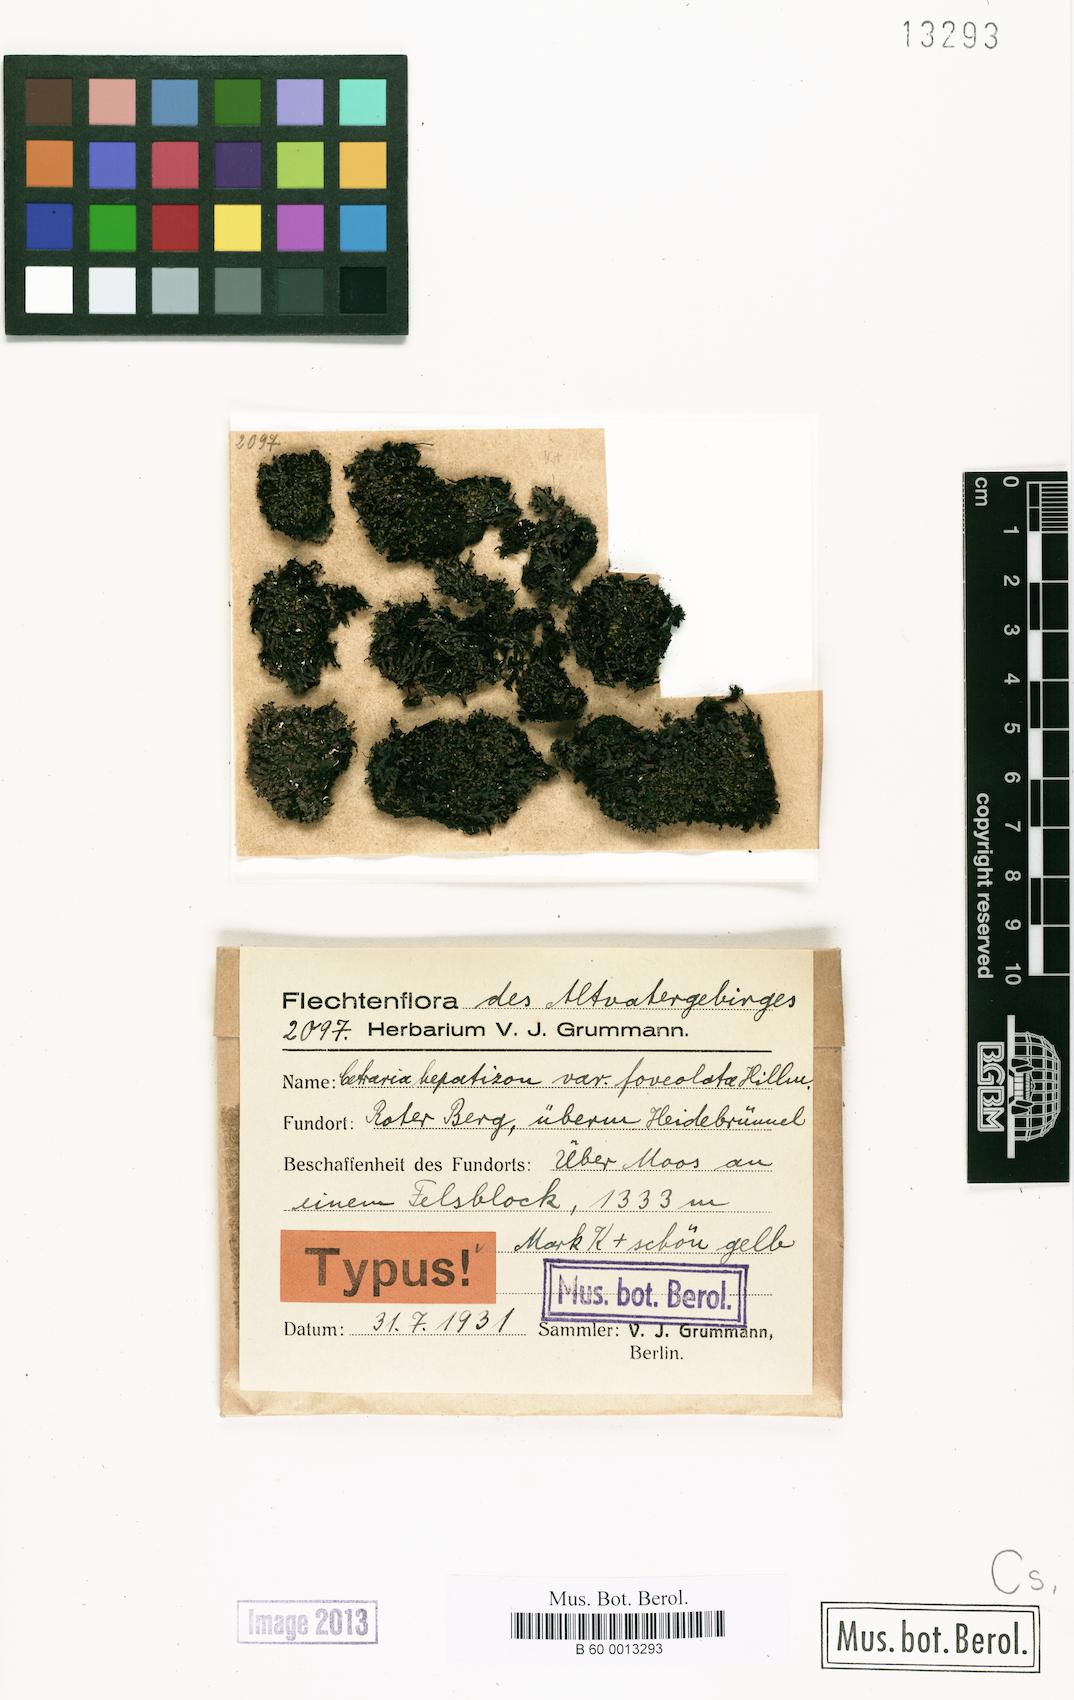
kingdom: Fungi
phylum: Ascomycota
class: Lecanoromycetes
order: Lecanorales
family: Parmeliaceae
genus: Melanelia
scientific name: Melanelia hepatizon
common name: Rimmed camouflage lichen
